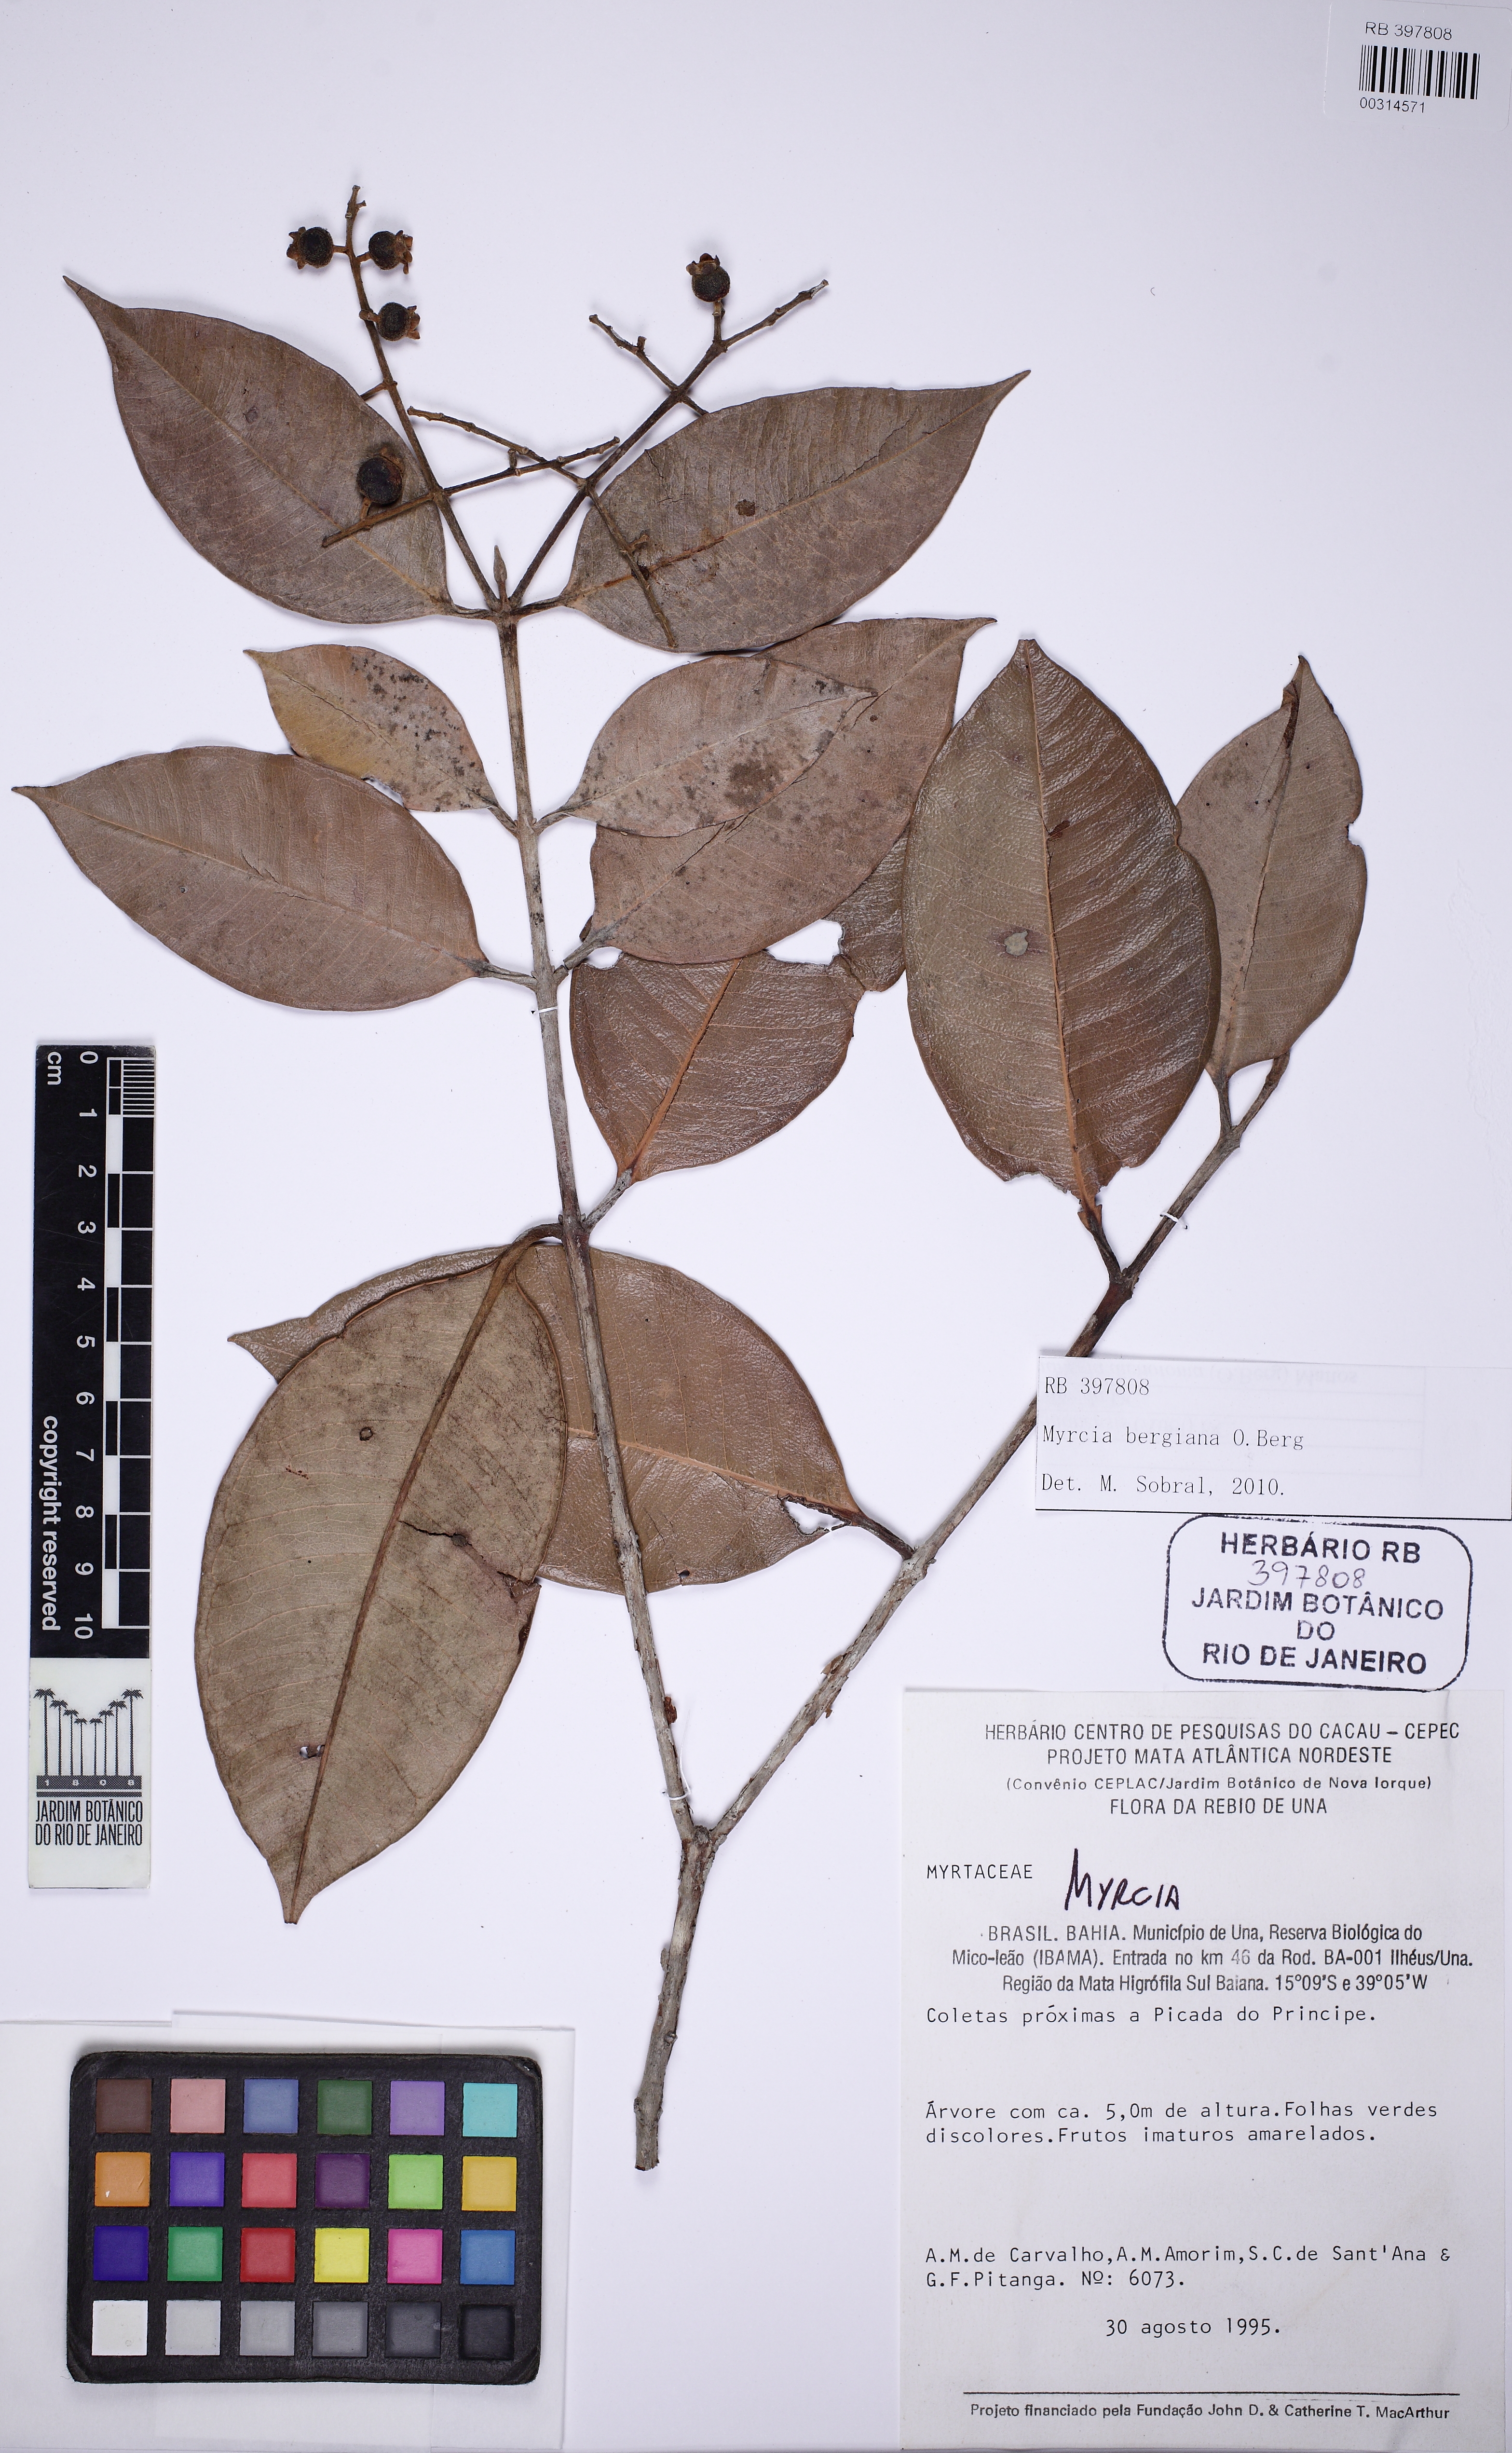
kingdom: Plantae
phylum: Tracheophyta
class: Magnoliopsida
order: Myrtales
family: Myrtaceae
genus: Myrcia
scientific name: Myrcia bergiana
